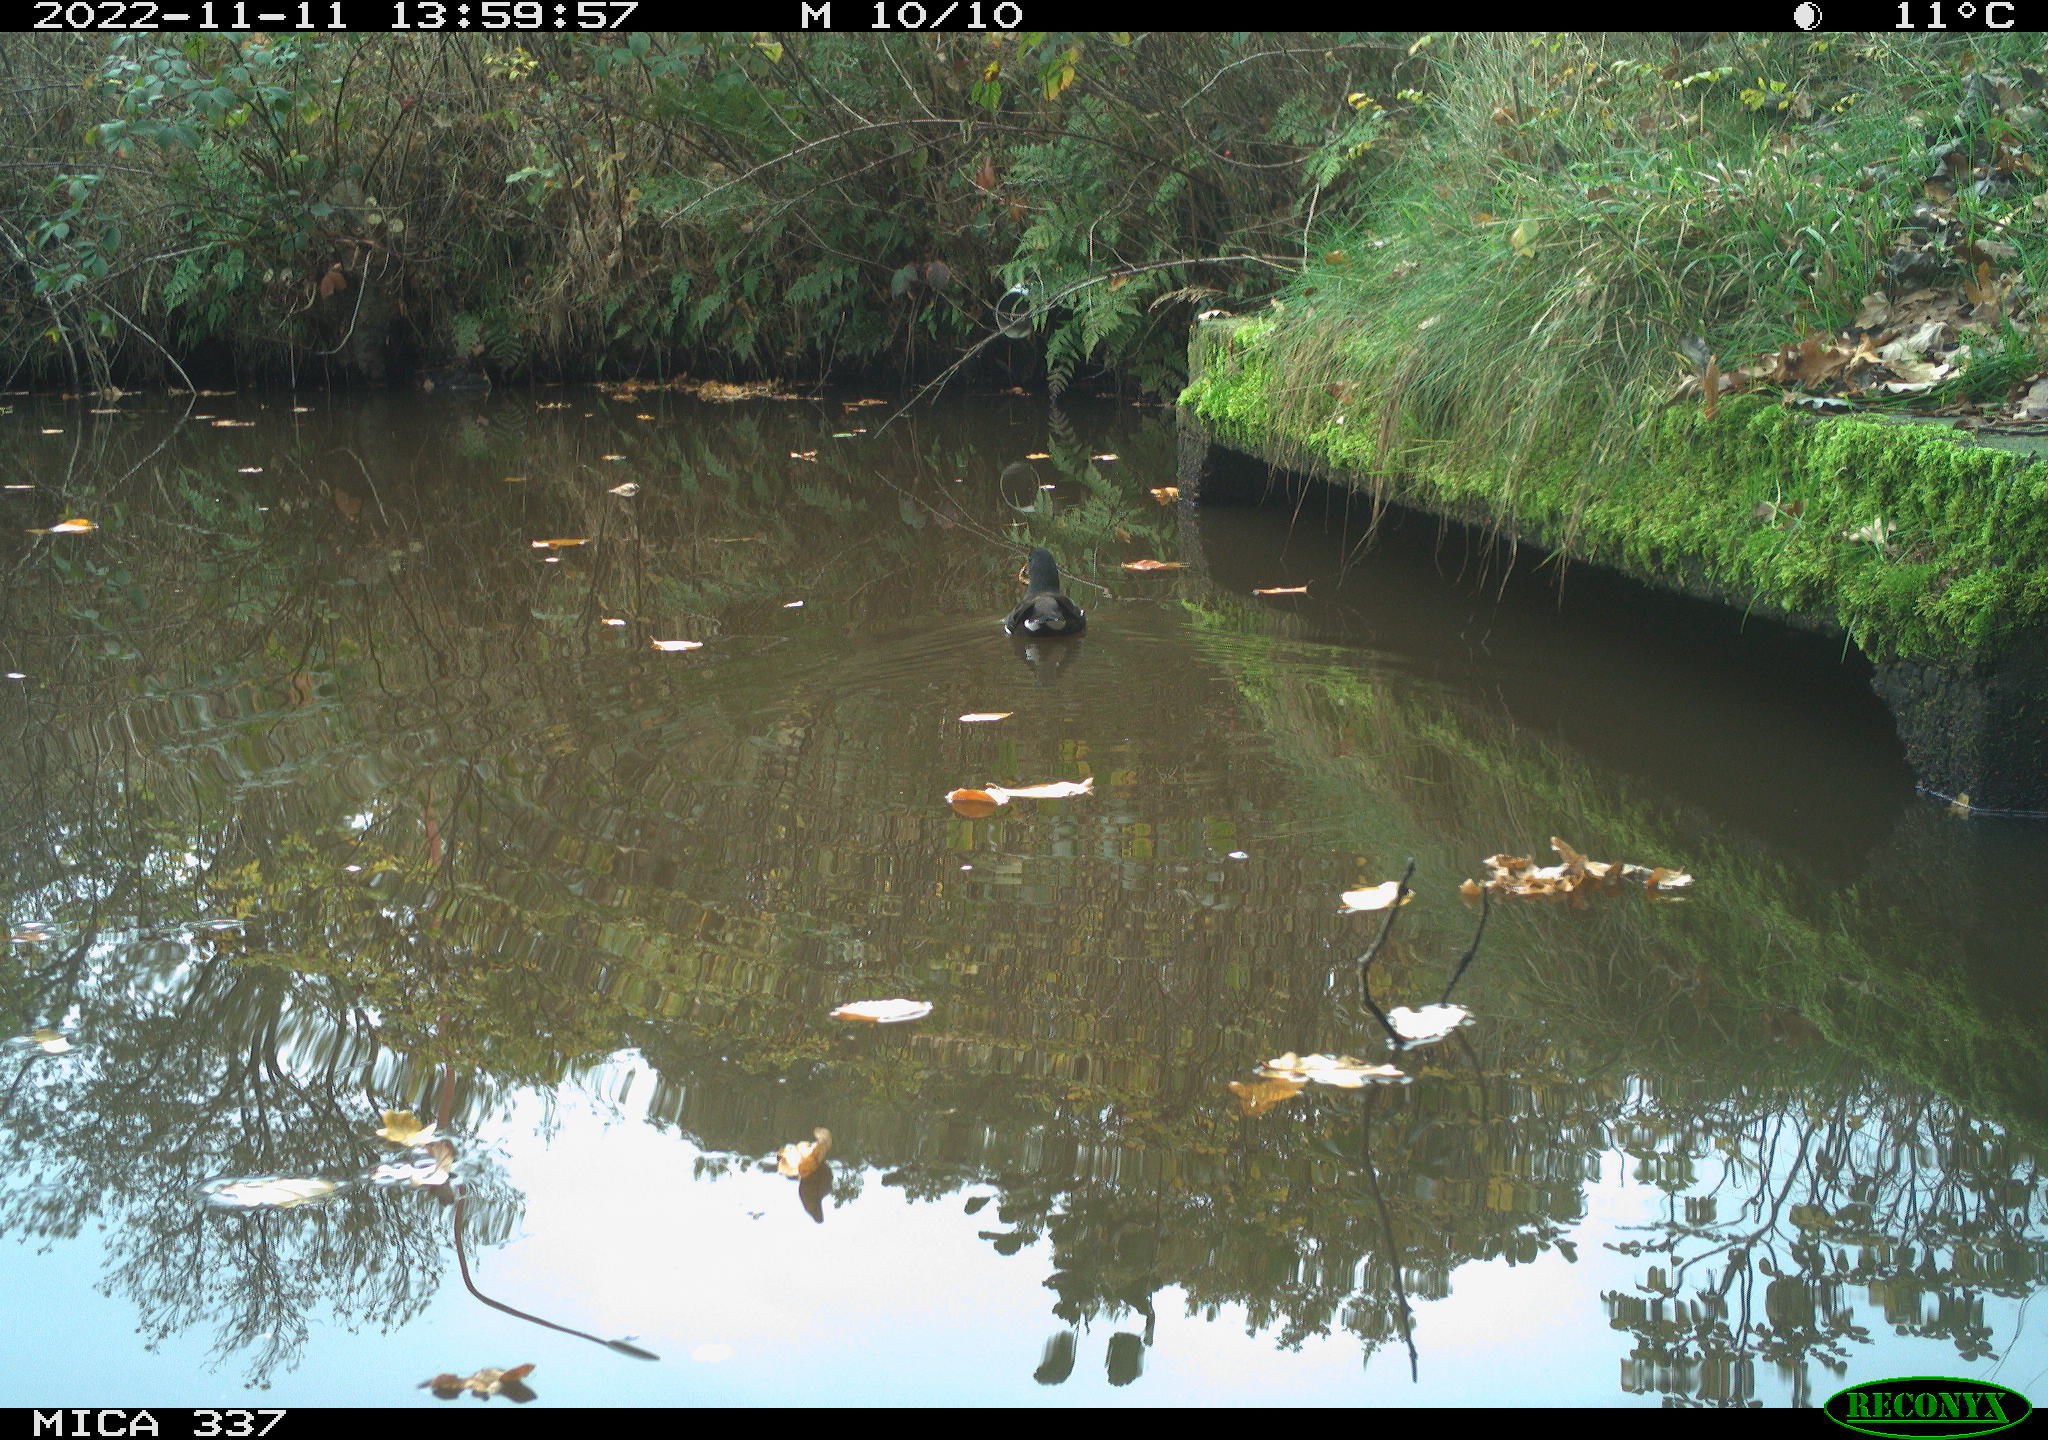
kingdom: Animalia
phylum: Chordata
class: Aves
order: Gruiformes
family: Rallidae
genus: Gallinula
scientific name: Gallinula chloropus
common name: Common moorhen
